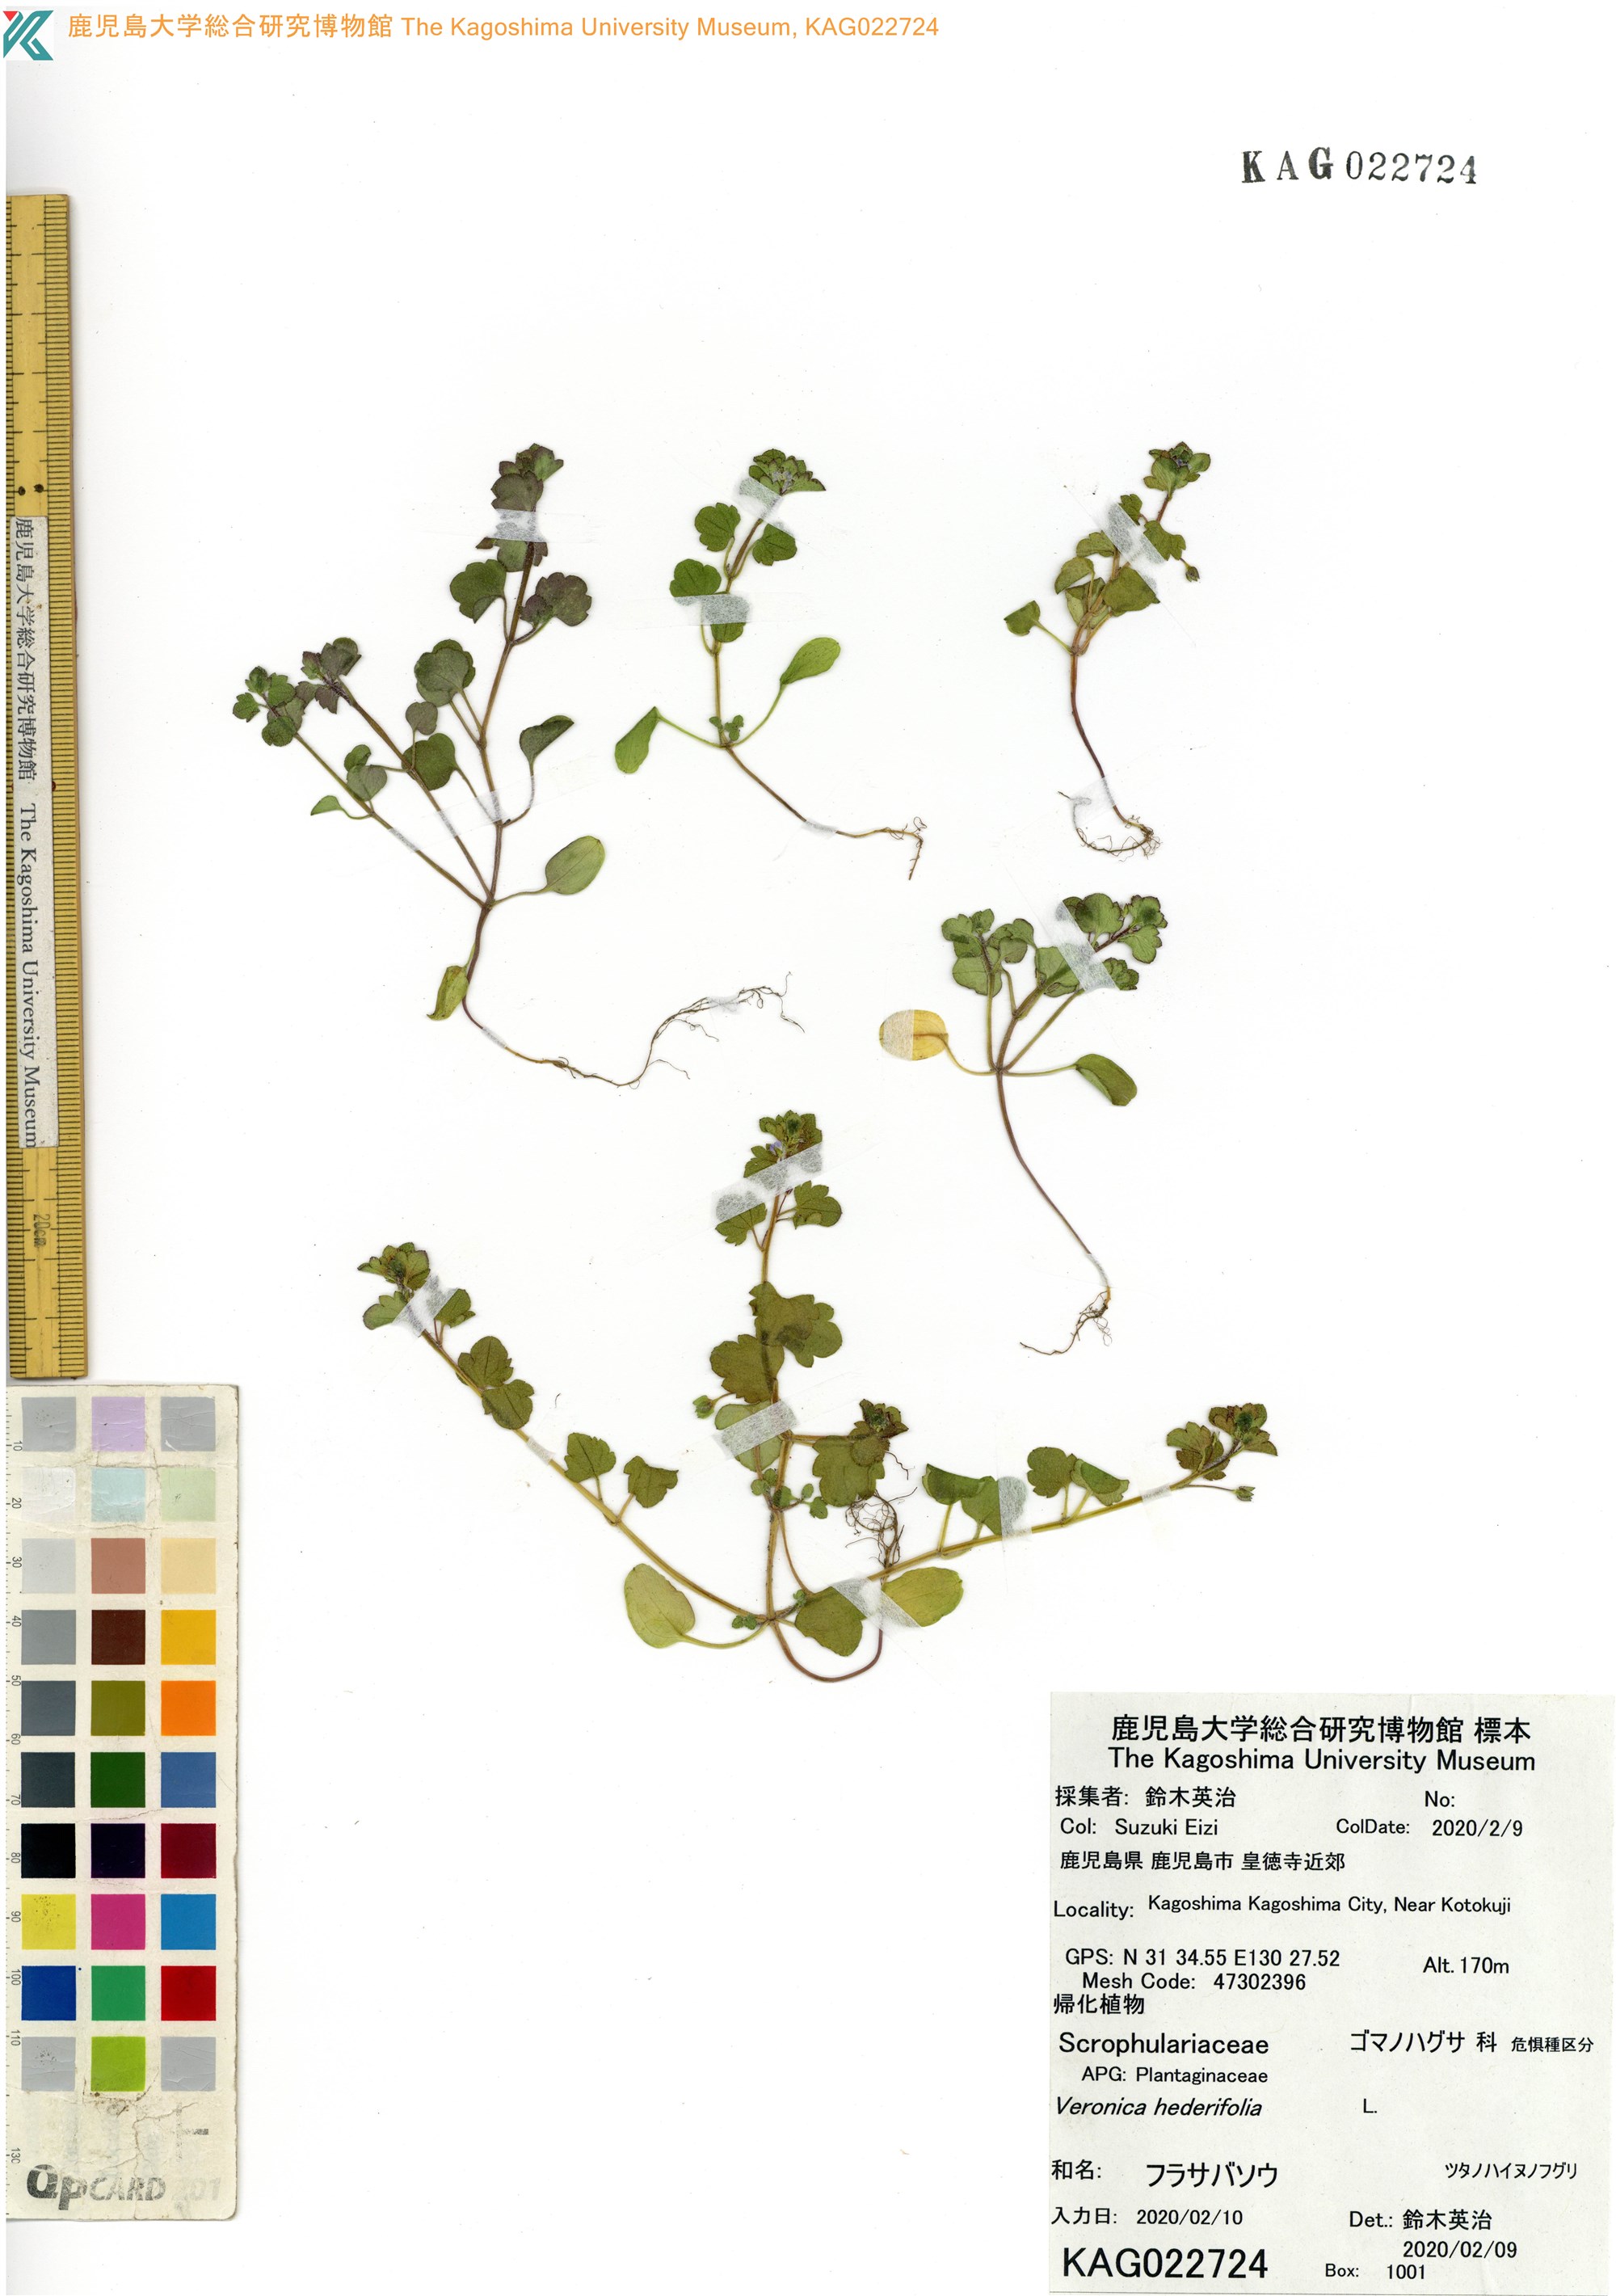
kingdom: Plantae
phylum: Tracheophyta
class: Magnoliopsida
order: Lamiales
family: Plantaginaceae
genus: Veronica
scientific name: Veronica hederifolia
